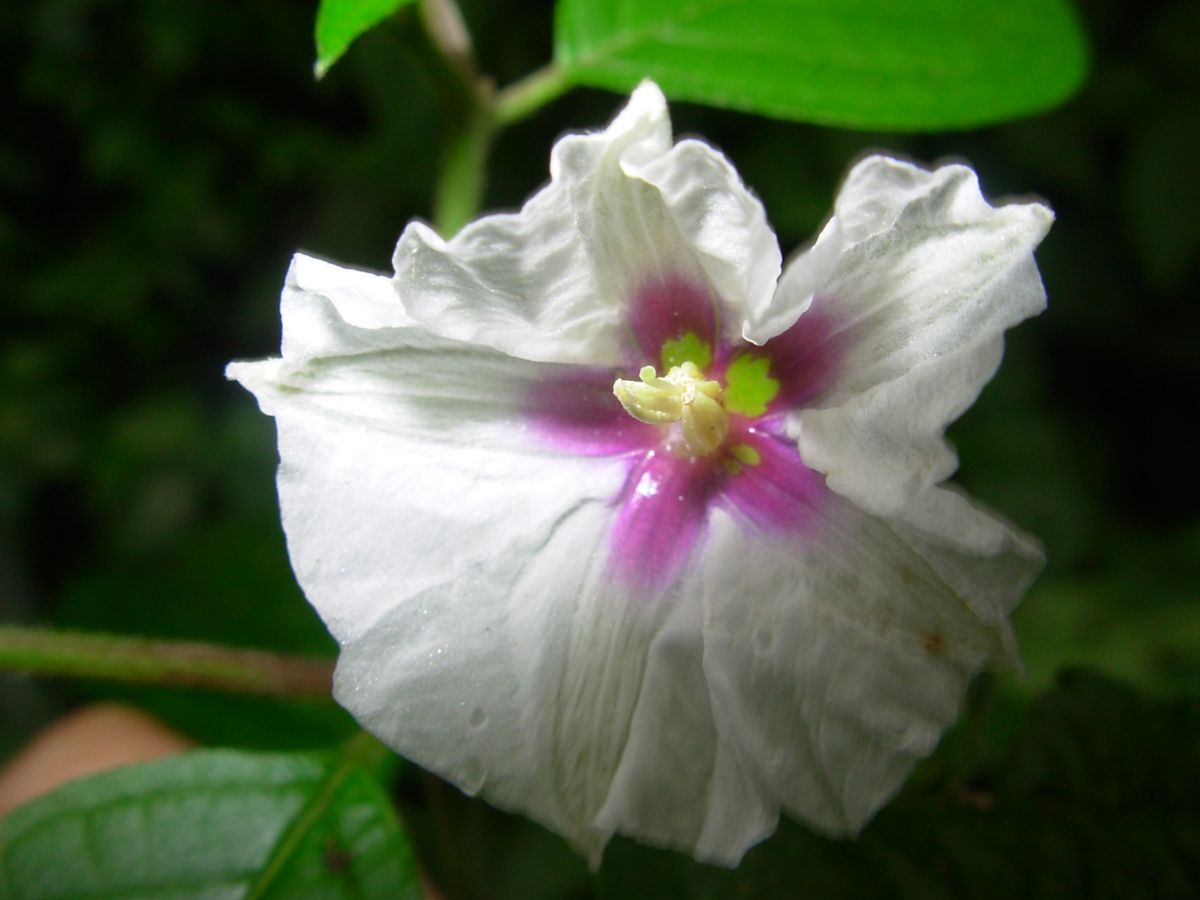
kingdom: Plantae
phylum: Tracheophyta
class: Magnoliopsida
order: Solanales
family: Solanaceae
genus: Lycianthes
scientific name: Lycianthes arrazolensis
